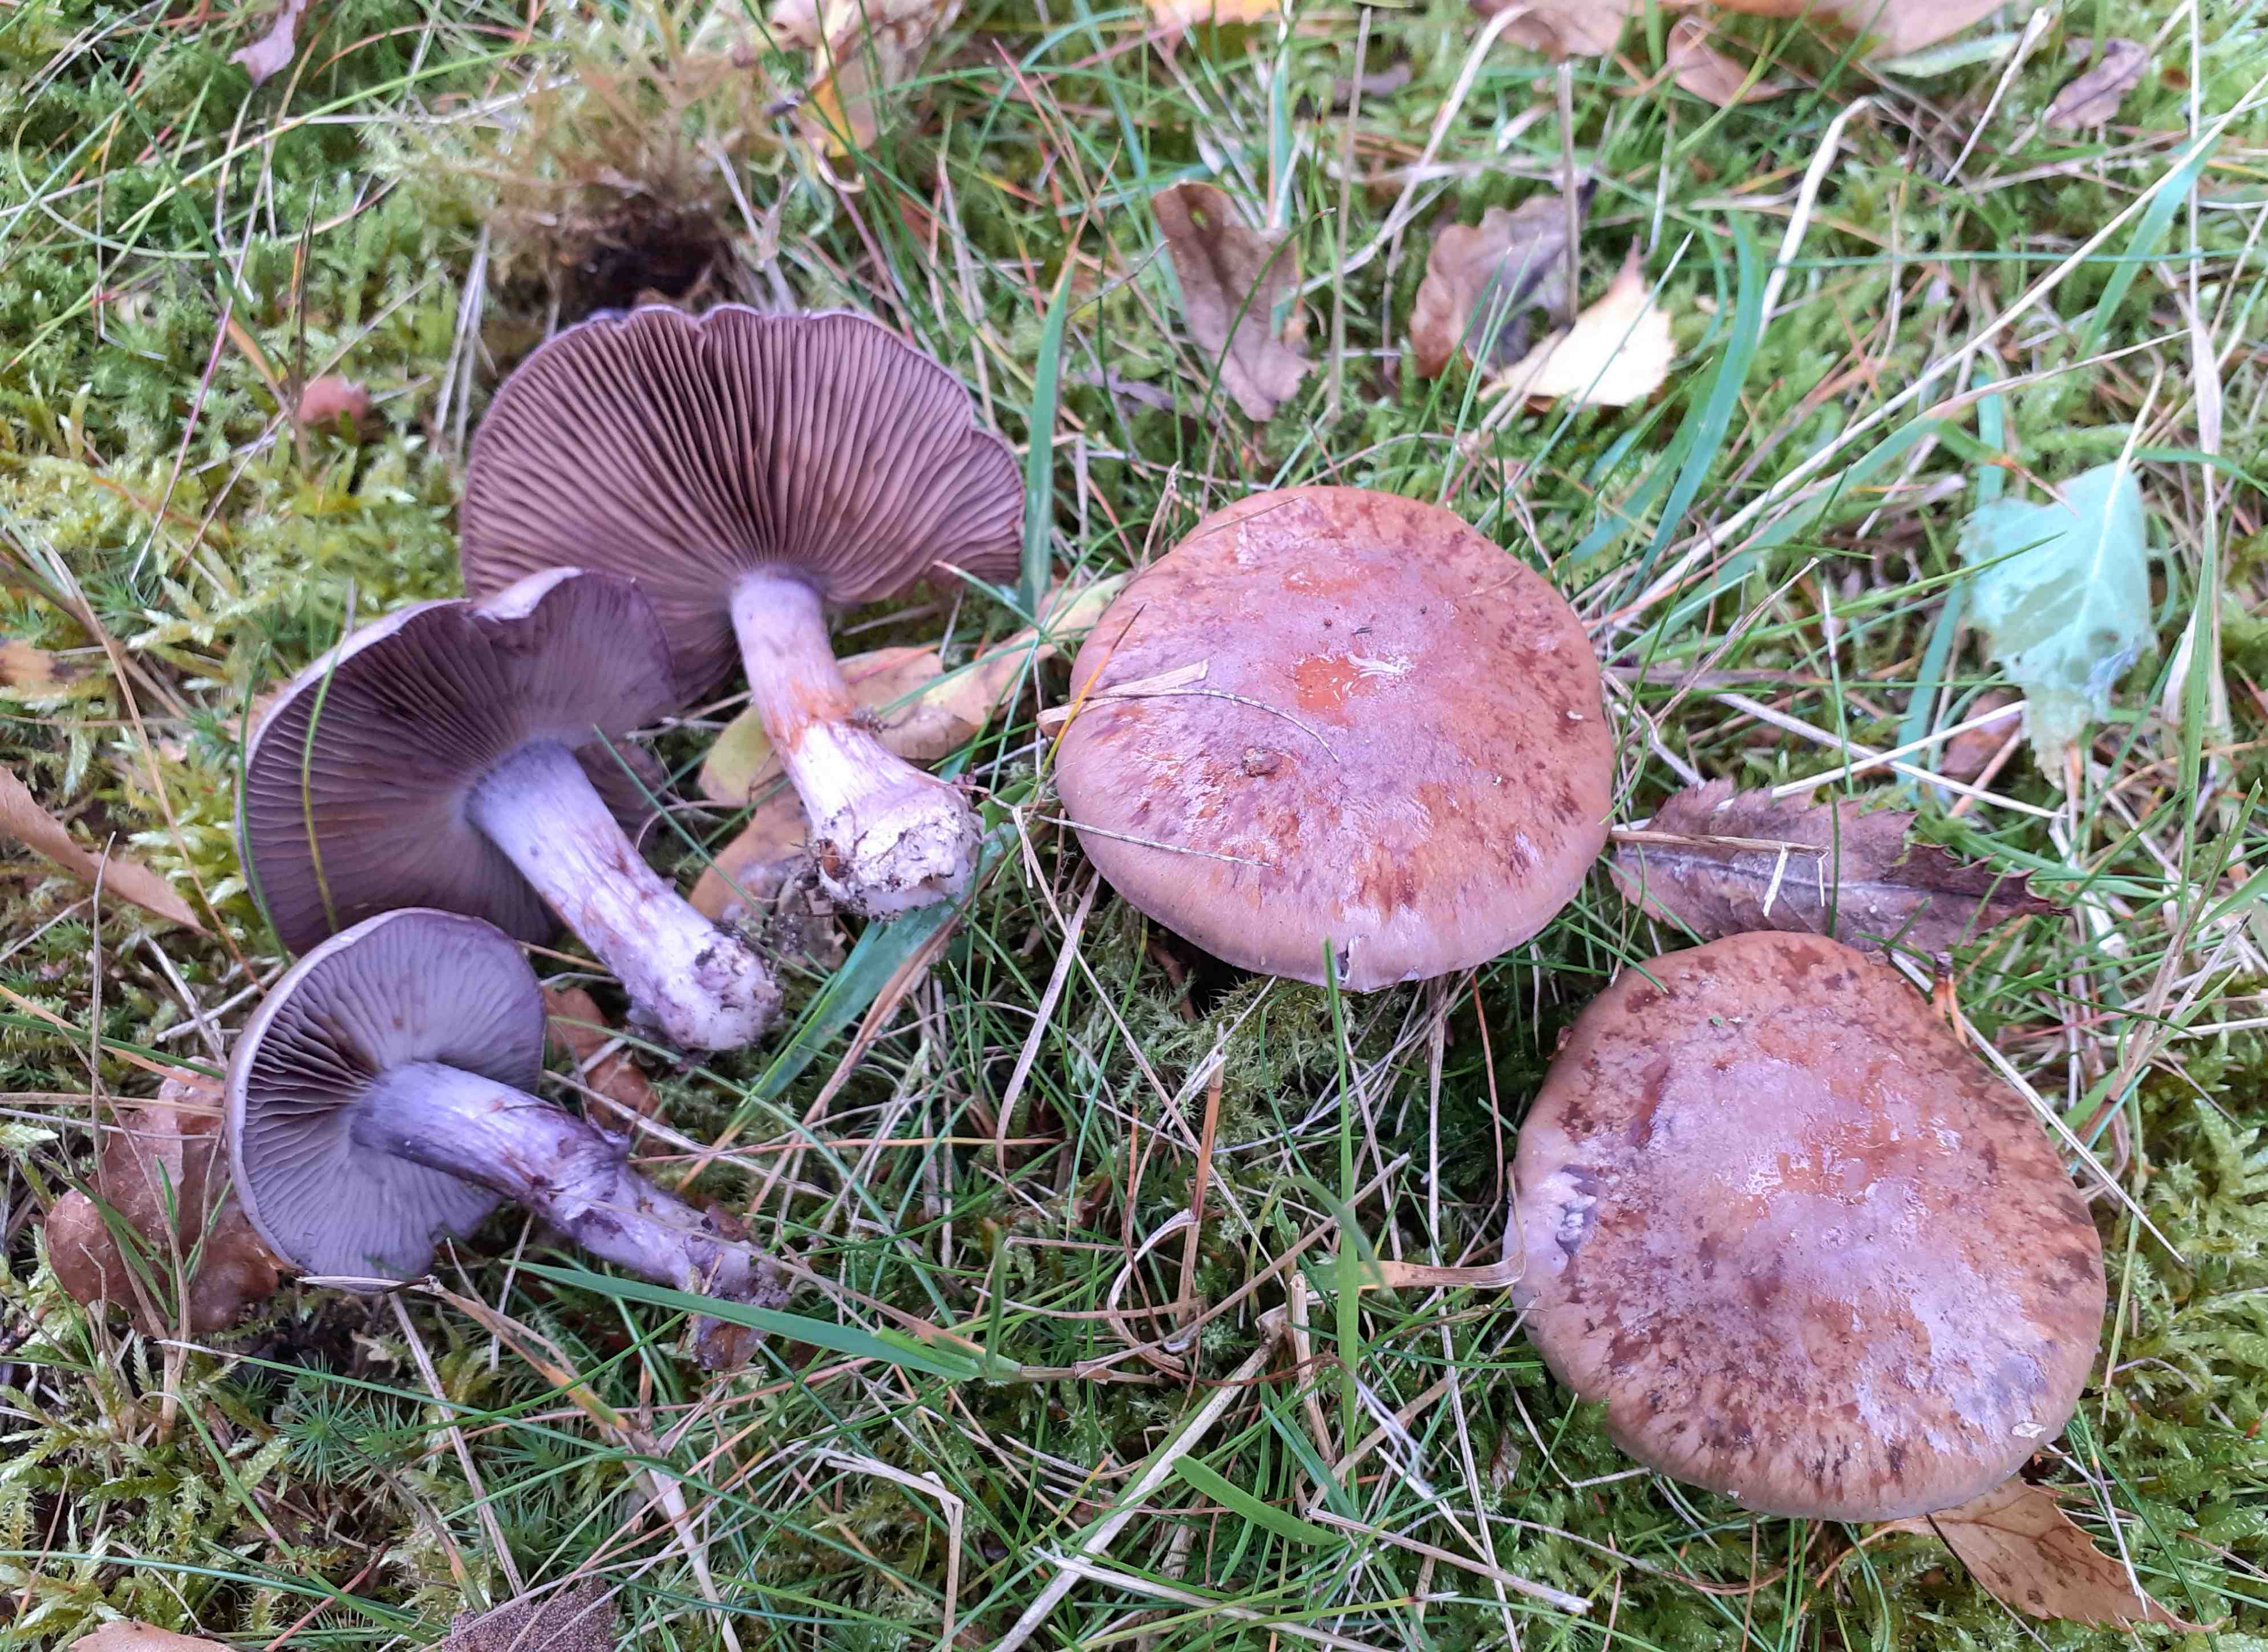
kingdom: Fungi
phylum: Basidiomycota
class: Agaricomycetes
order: Agaricales
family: Cortinariaceae
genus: Thaxterogaster
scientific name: Thaxterogaster purpurascens
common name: purpurbrun slørhat
